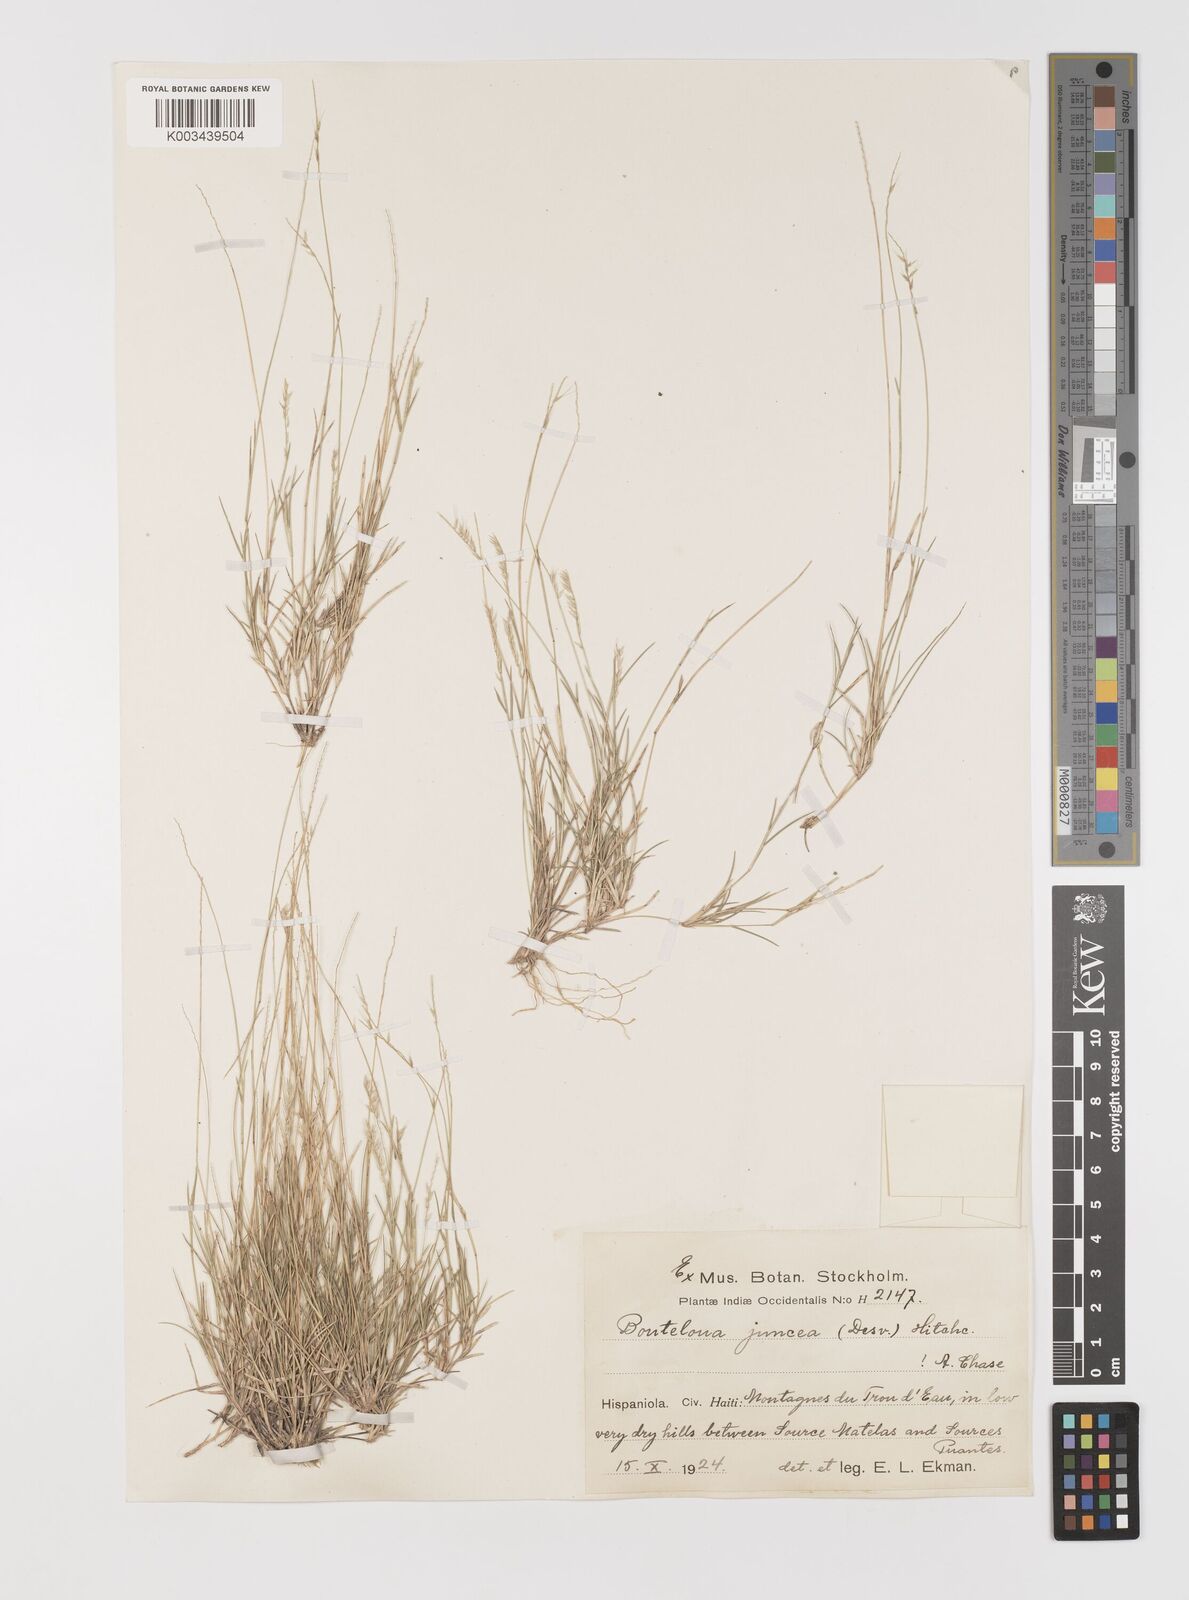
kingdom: Plantae
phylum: Tracheophyta
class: Liliopsida
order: Poales
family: Poaceae
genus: Bouteloua
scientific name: Bouteloua juncea
